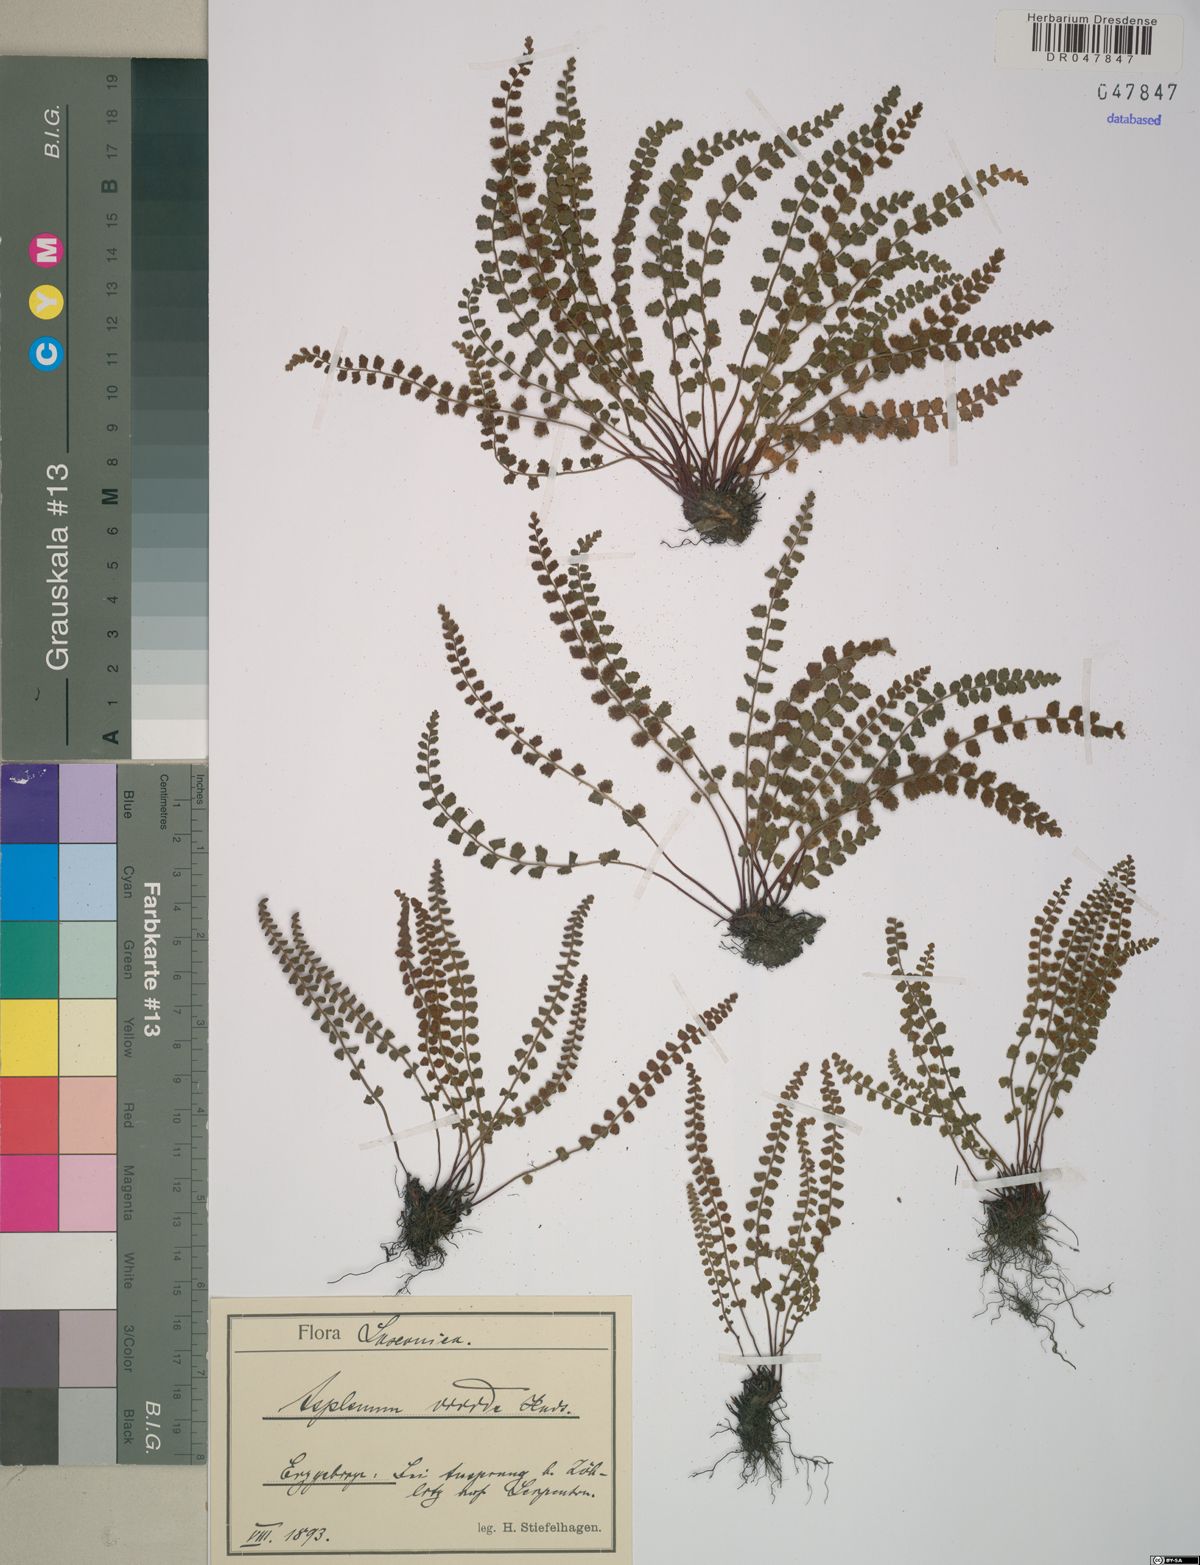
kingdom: Plantae
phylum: Tracheophyta
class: Polypodiopsida
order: Polypodiales
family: Aspleniaceae
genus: Asplenium
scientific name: Asplenium viride
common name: Green spleenwort
